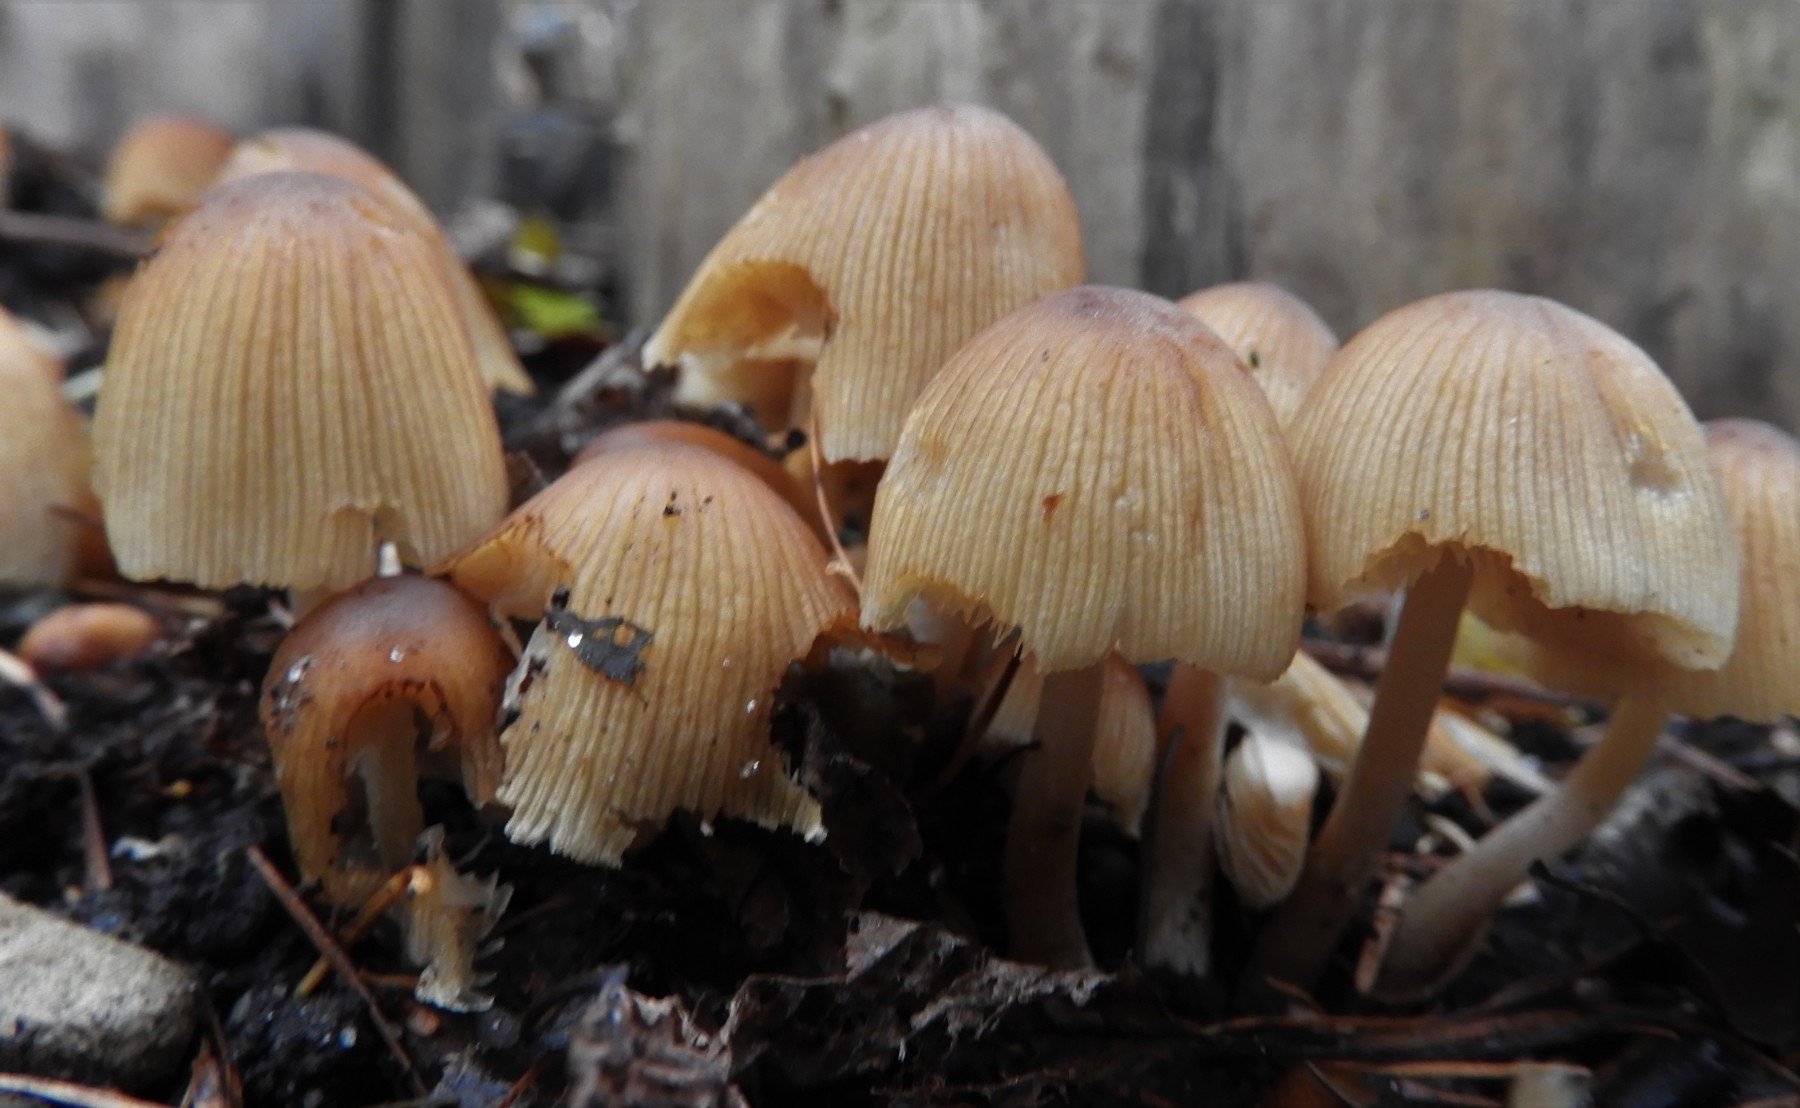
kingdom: Fungi
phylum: Basidiomycota
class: Agaricomycetes
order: Agaricales
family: Psathyrellaceae
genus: Coprinellus
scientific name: Coprinellus micaceus
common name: glimmer-blækhat
